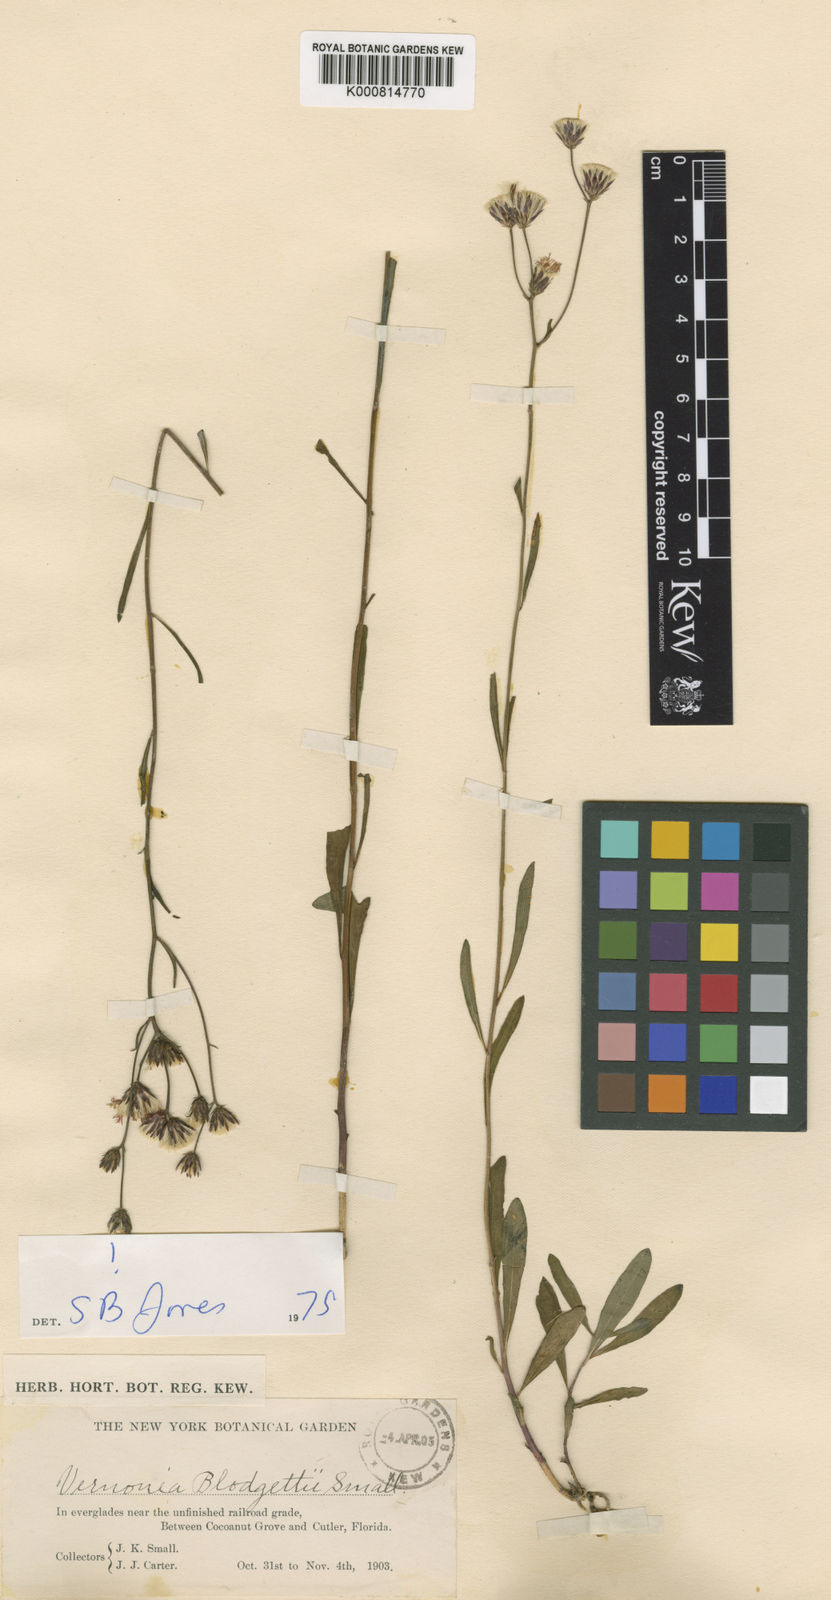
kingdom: Plantae
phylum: Tracheophyta
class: Magnoliopsida
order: Asterales
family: Asteraceae
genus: Vernonia
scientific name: Vernonia blodgettii
